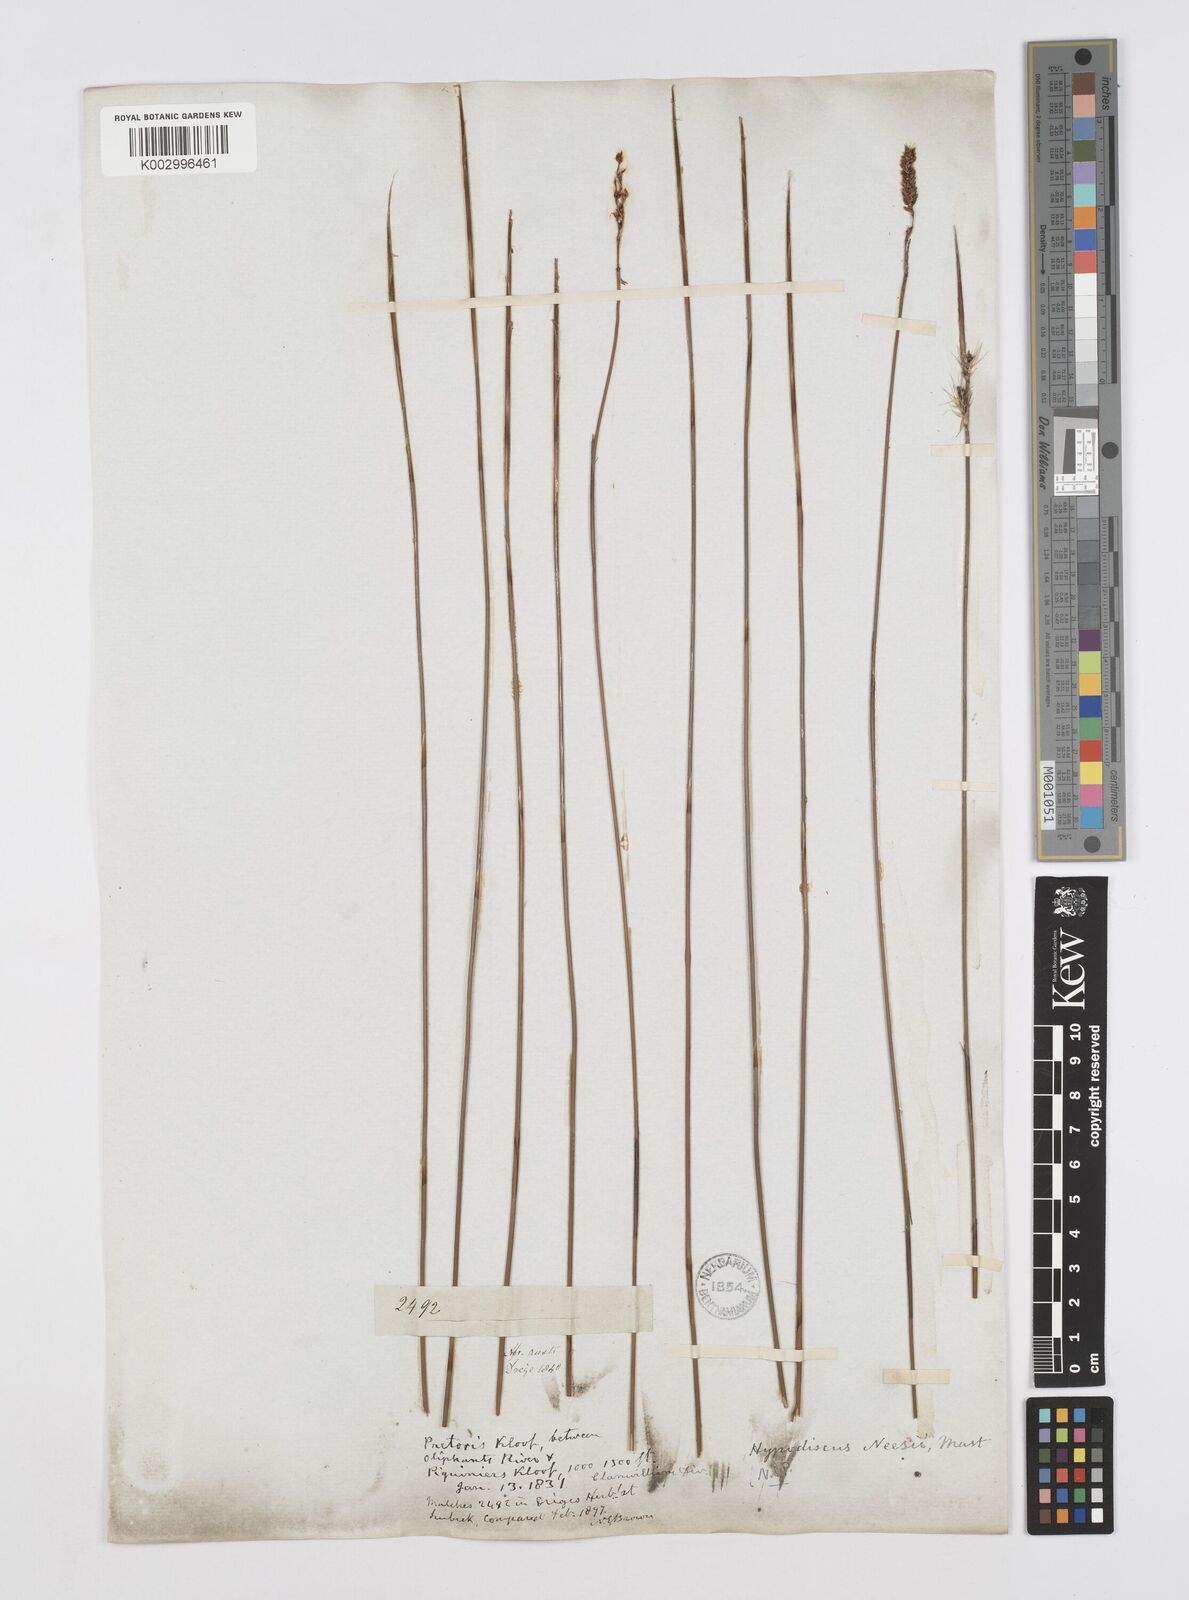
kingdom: Plantae
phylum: Tracheophyta
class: Liliopsida
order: Poales
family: Restionaceae
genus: Hypodiscus
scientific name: Hypodiscus neesii
